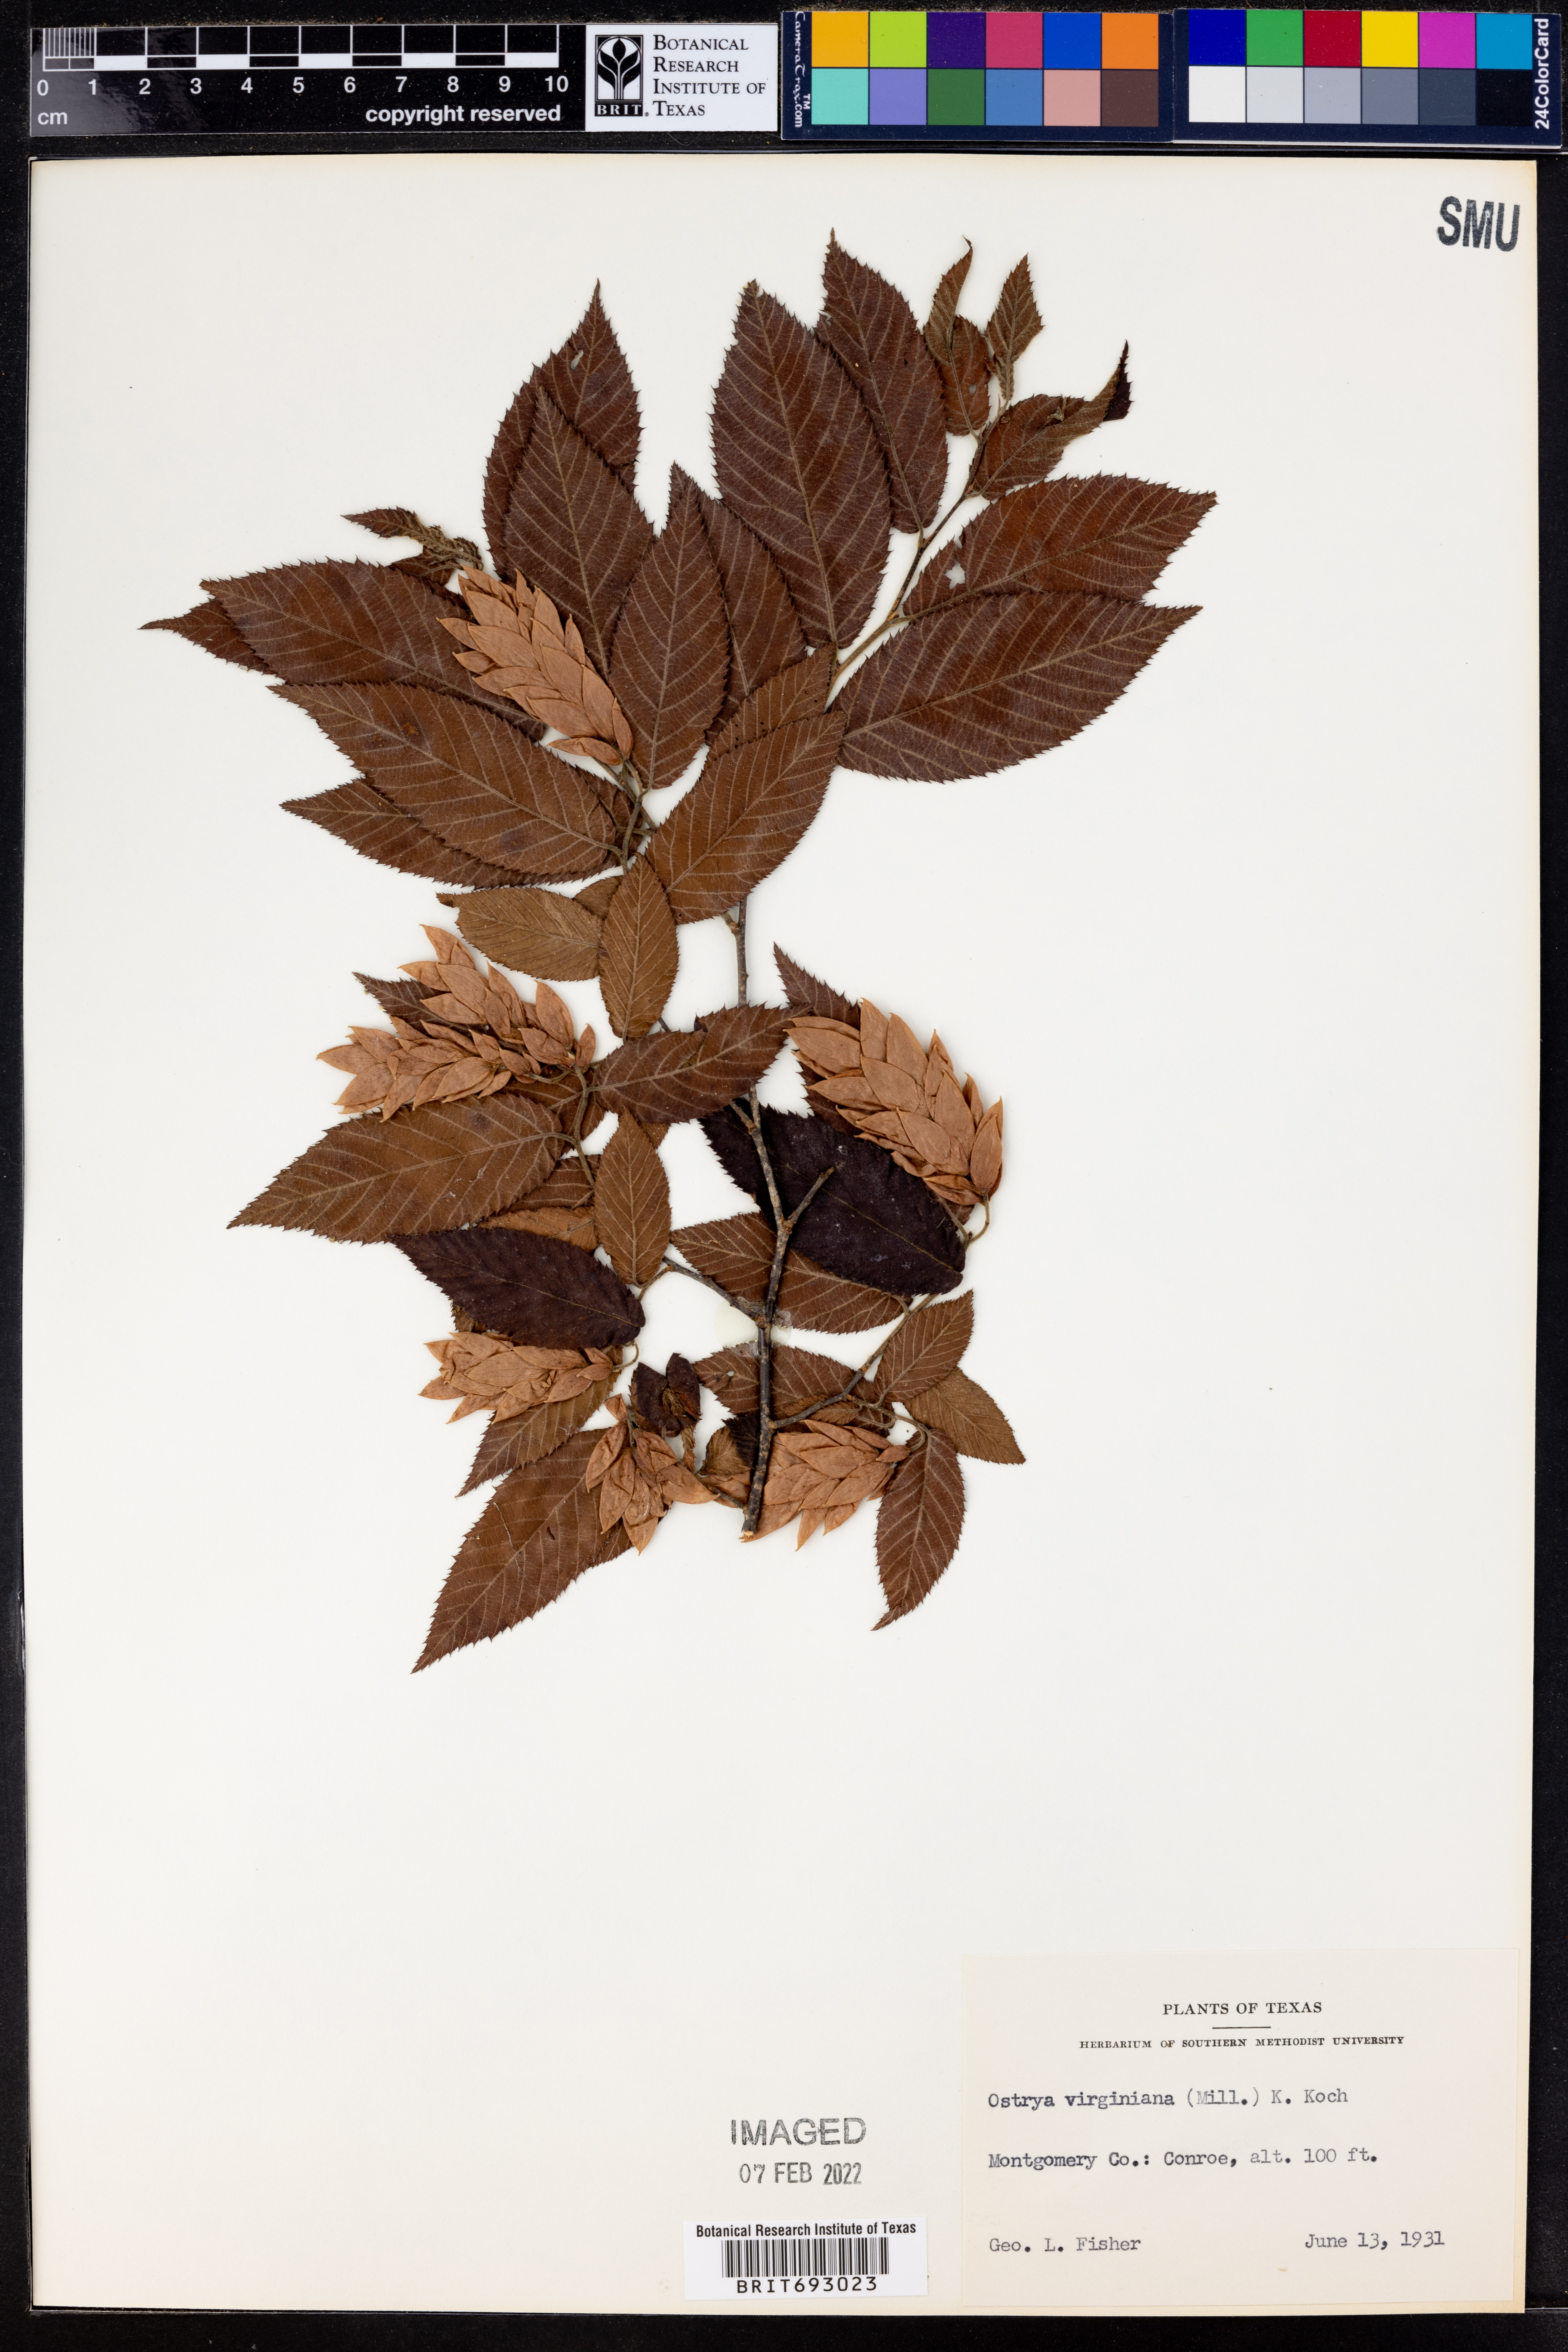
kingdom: Plantae
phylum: Tracheophyta
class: Magnoliopsida
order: Fagales
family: Betulaceae
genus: Ostrya
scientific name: Ostrya virginiana
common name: Ironwood
